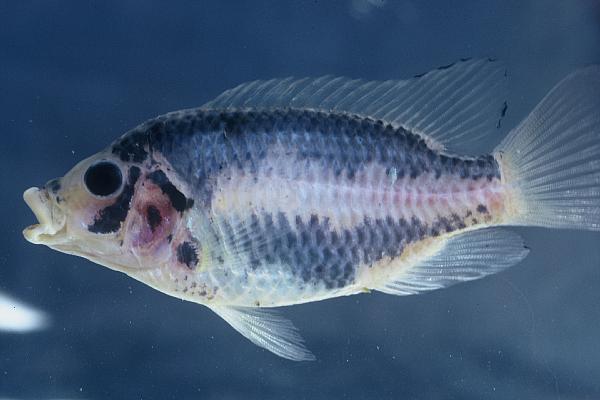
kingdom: Animalia
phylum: Chordata
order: Perciformes
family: Cichlidae
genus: Tilapia
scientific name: Tilapia guinasana
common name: Otjikoto tilapia
